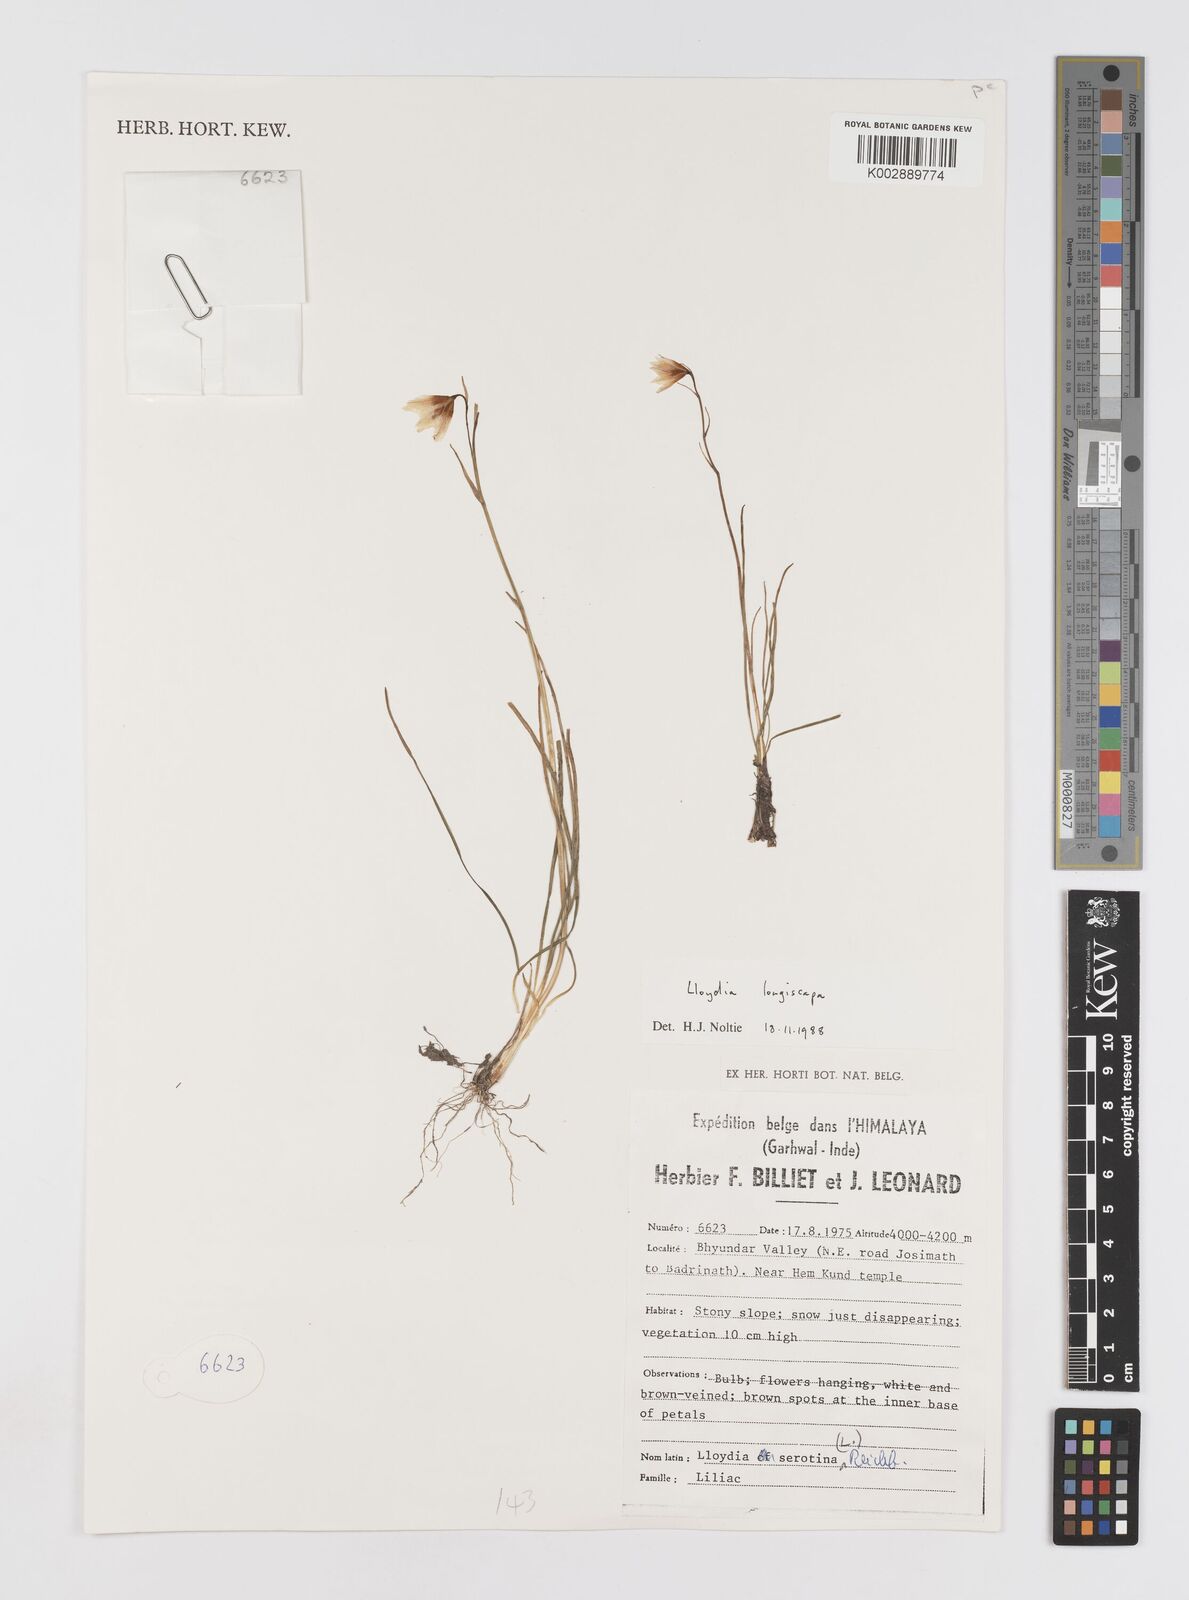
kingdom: Plantae
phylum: Tracheophyta
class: Liliopsida
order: Liliales
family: Liliaceae
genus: Gagea
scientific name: Gagea longiscapa
